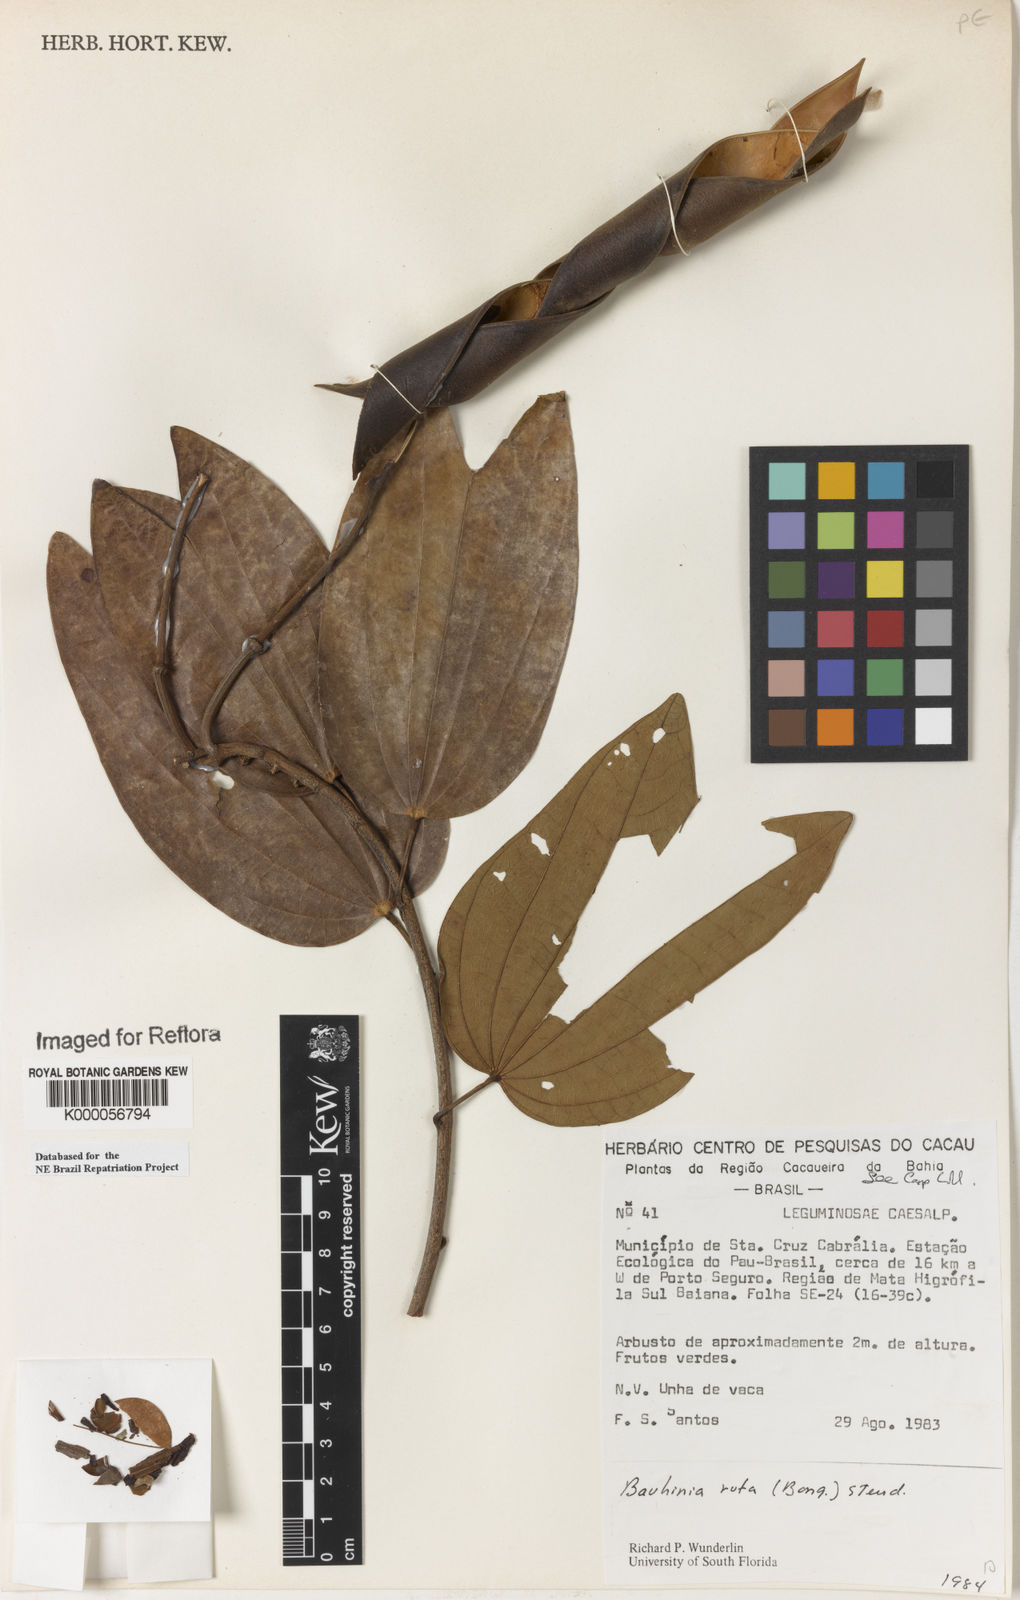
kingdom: Plantae
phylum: Tracheophyta
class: Magnoliopsida
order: Fabales
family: Fabaceae
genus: Bauhinia
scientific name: Bauhinia rufa
